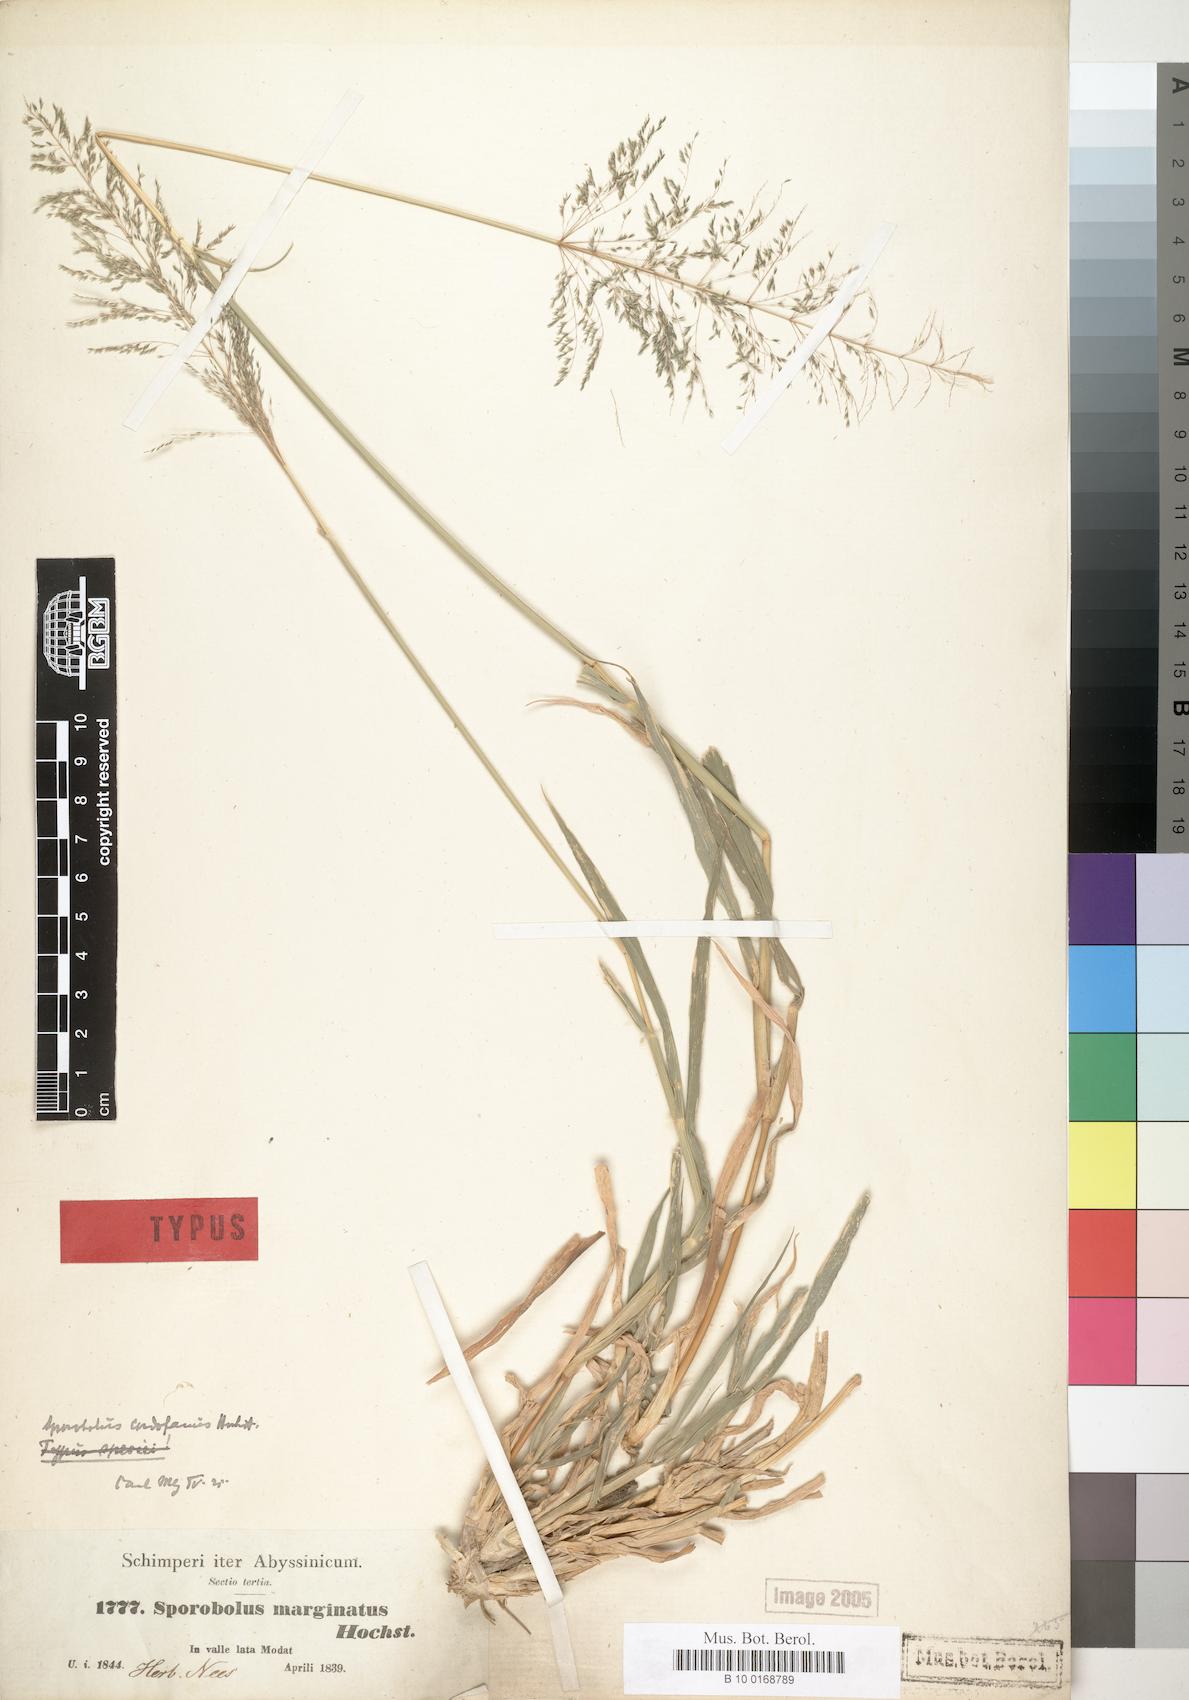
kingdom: Plantae
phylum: Tracheophyta
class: Liliopsida
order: Poales
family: Poaceae
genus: Sporobolus
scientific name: Sporobolus ioclados
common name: Pan dropseed
